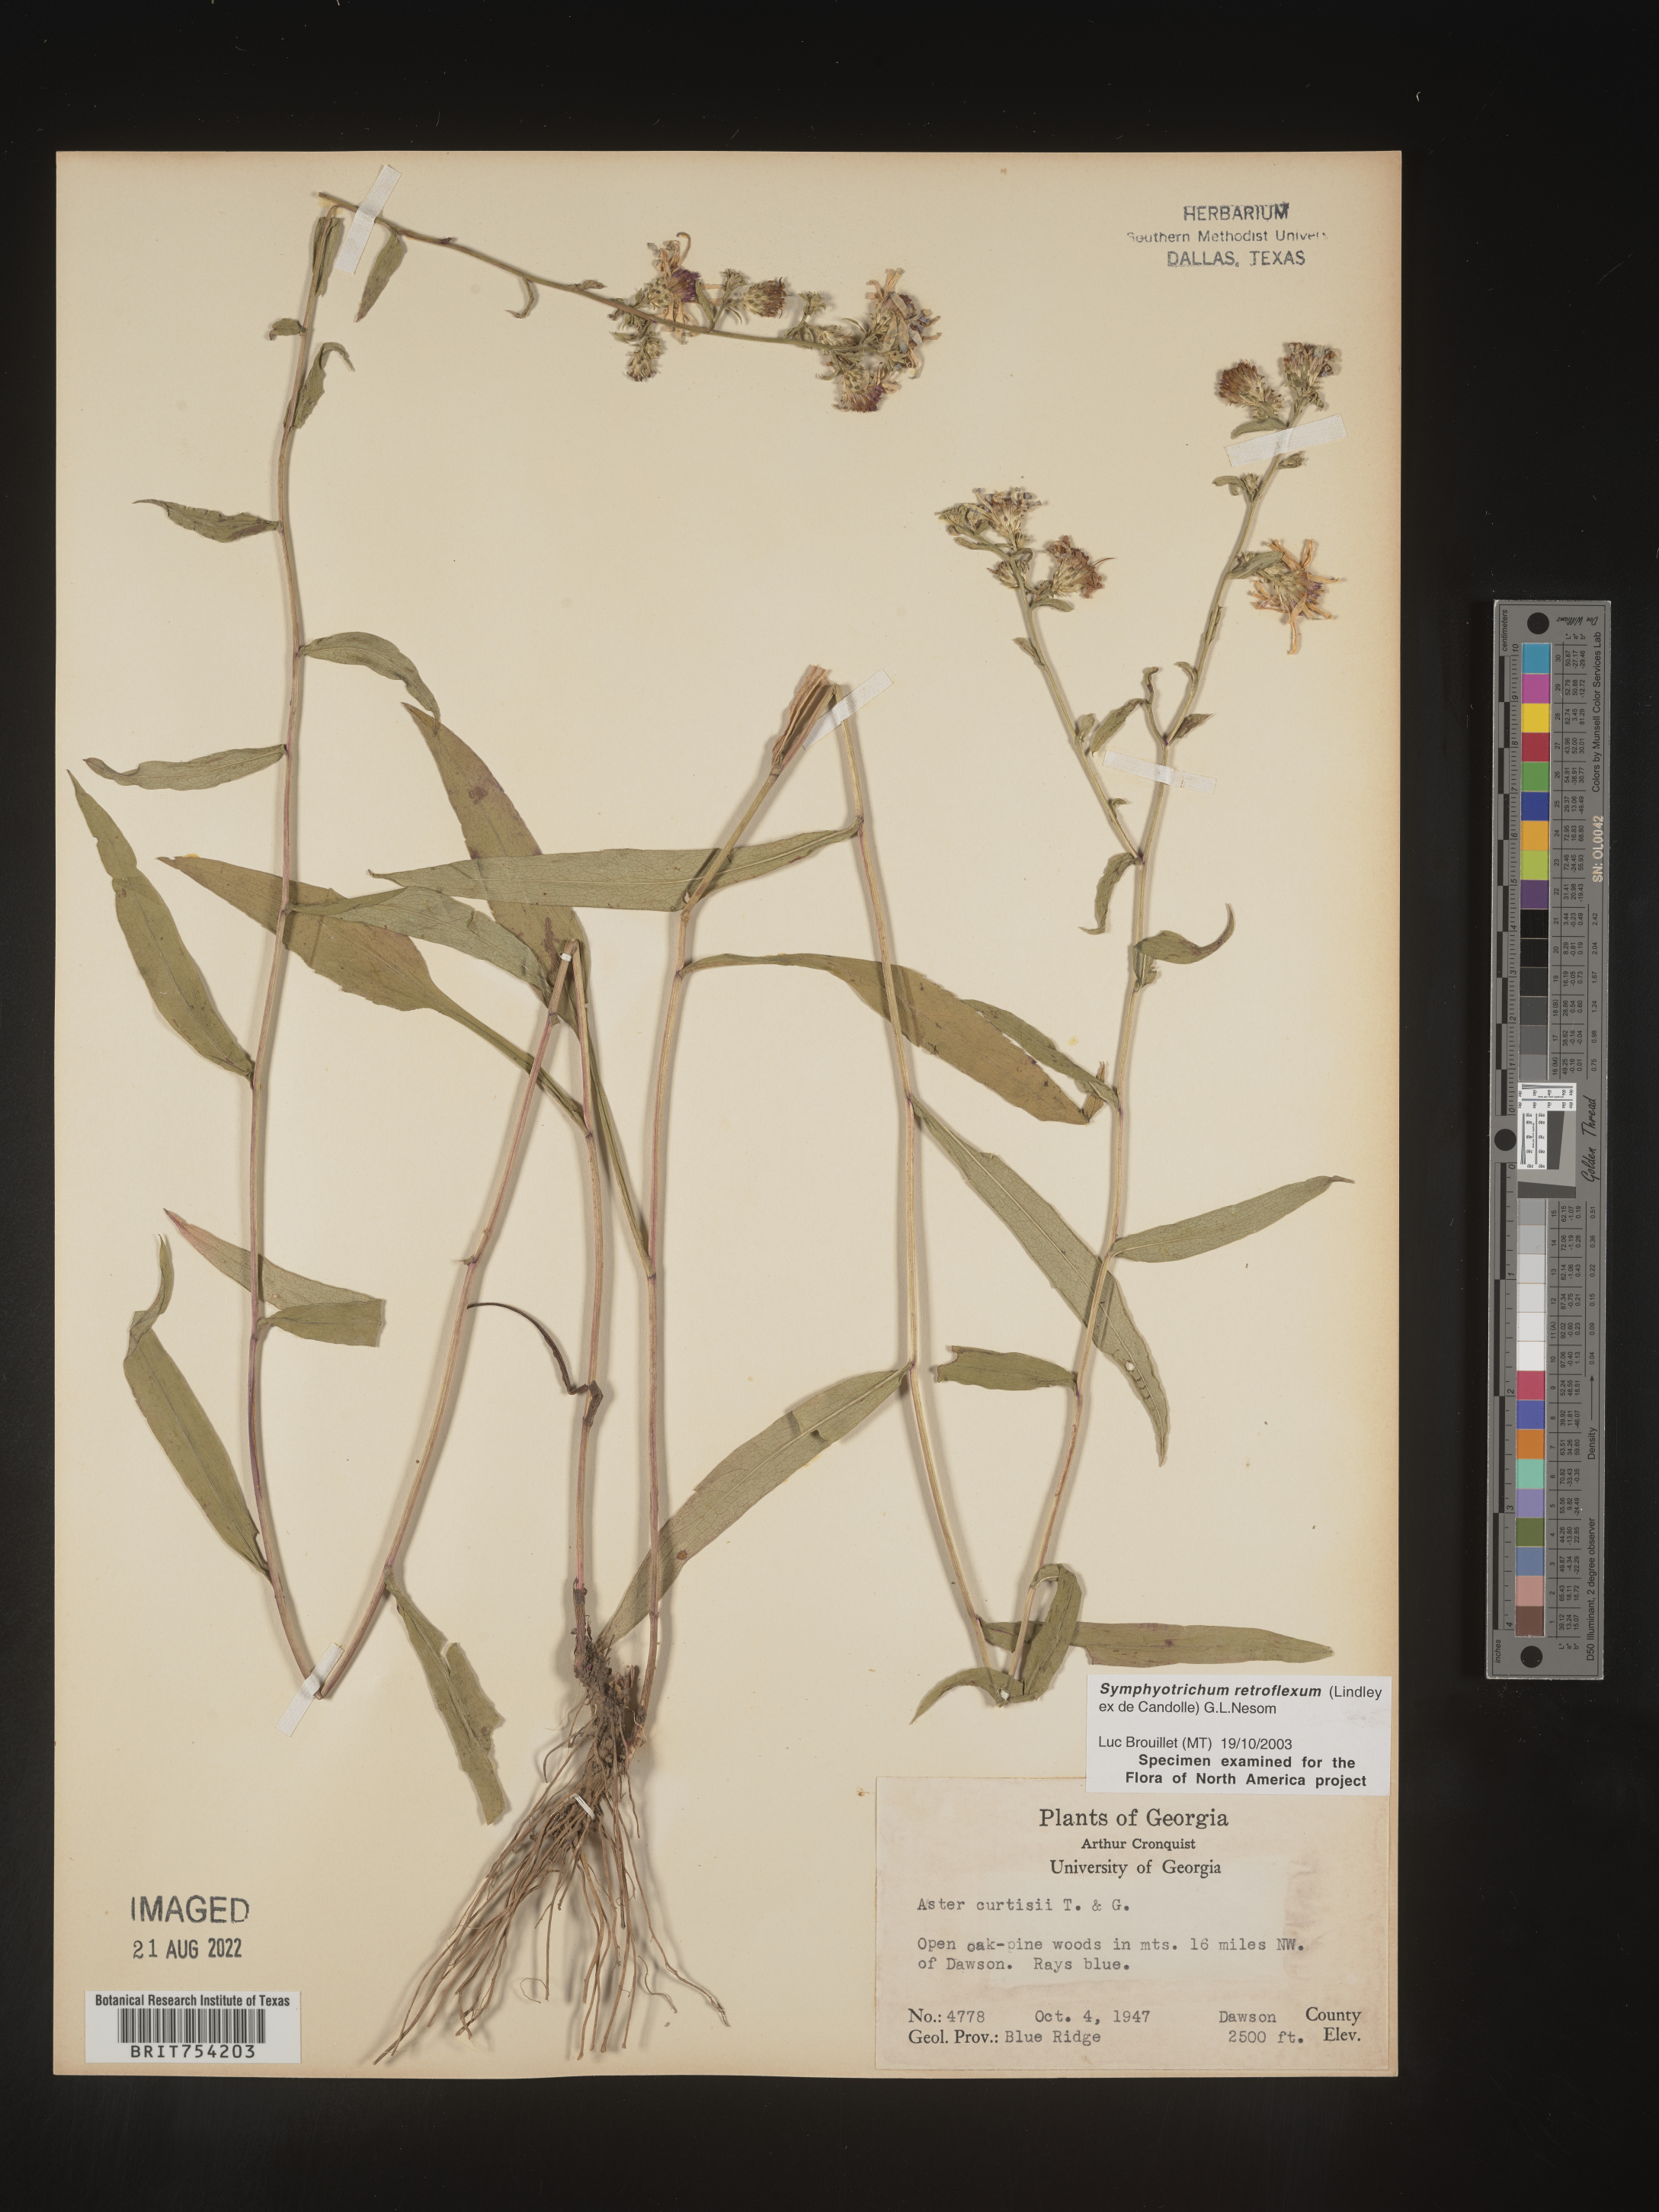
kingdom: Plantae
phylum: Tracheophyta
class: Magnoliopsida
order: Asterales
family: Asteraceae
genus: Symphyotrichum
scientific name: Symphyotrichum retroflexum
